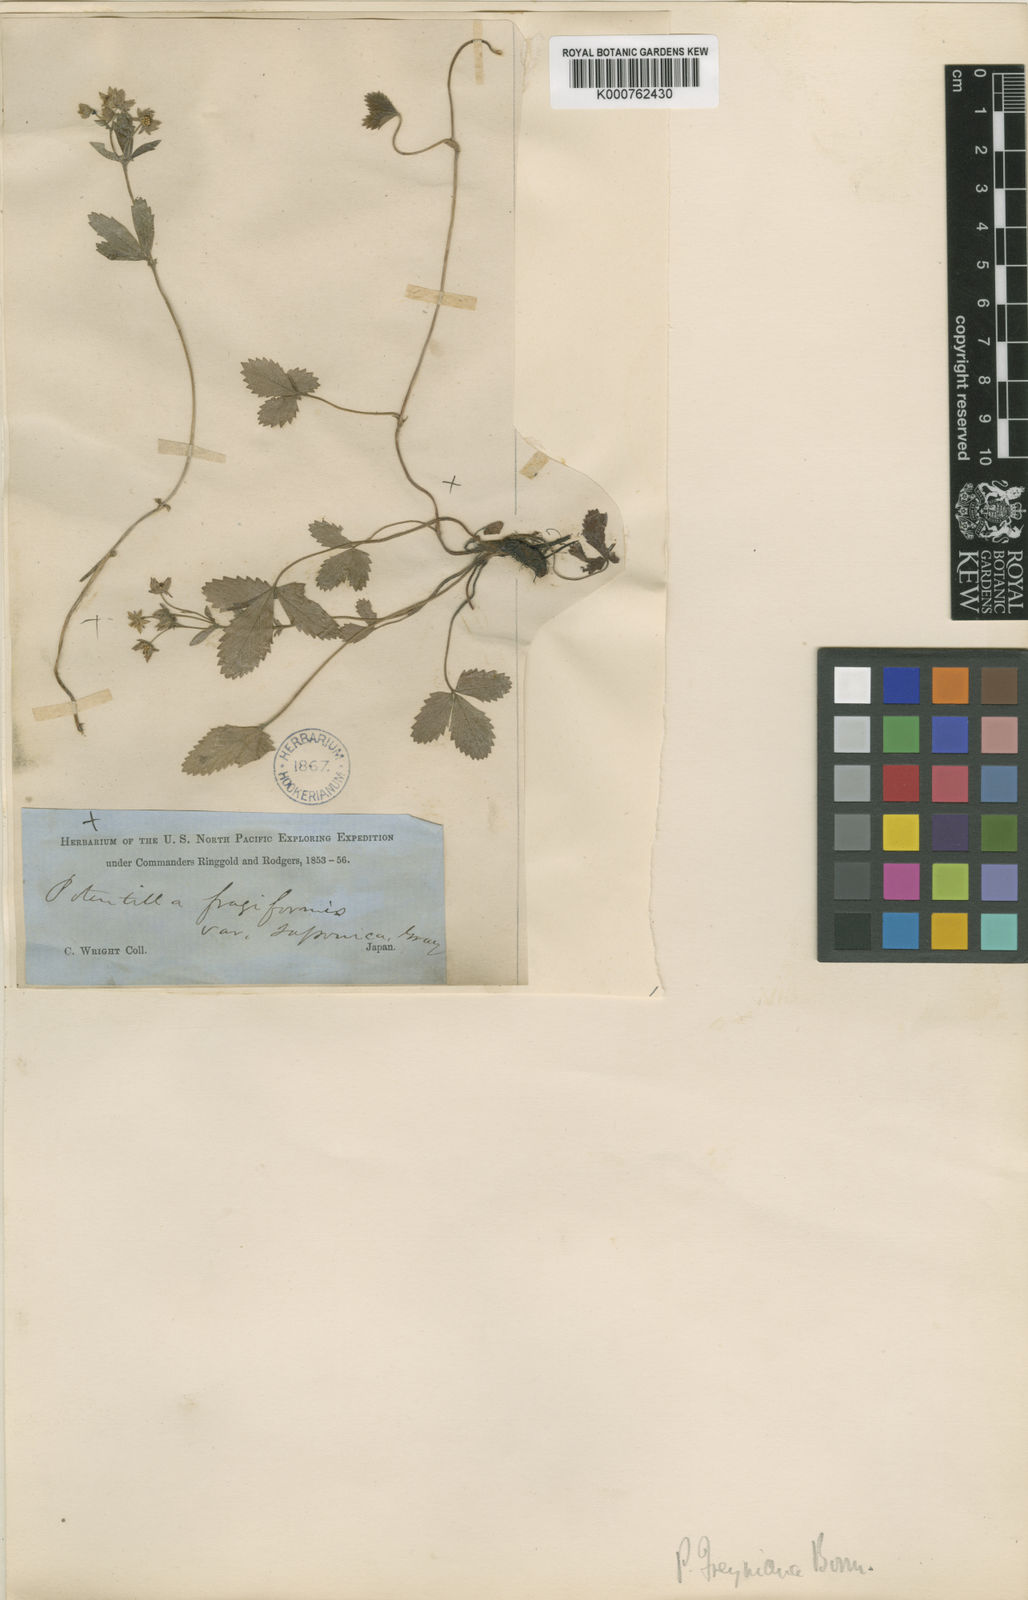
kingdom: Plantae
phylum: Tracheophyta
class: Magnoliopsida
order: Rosales
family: Rosaceae
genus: Potentilla
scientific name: Potentilla freyniana
